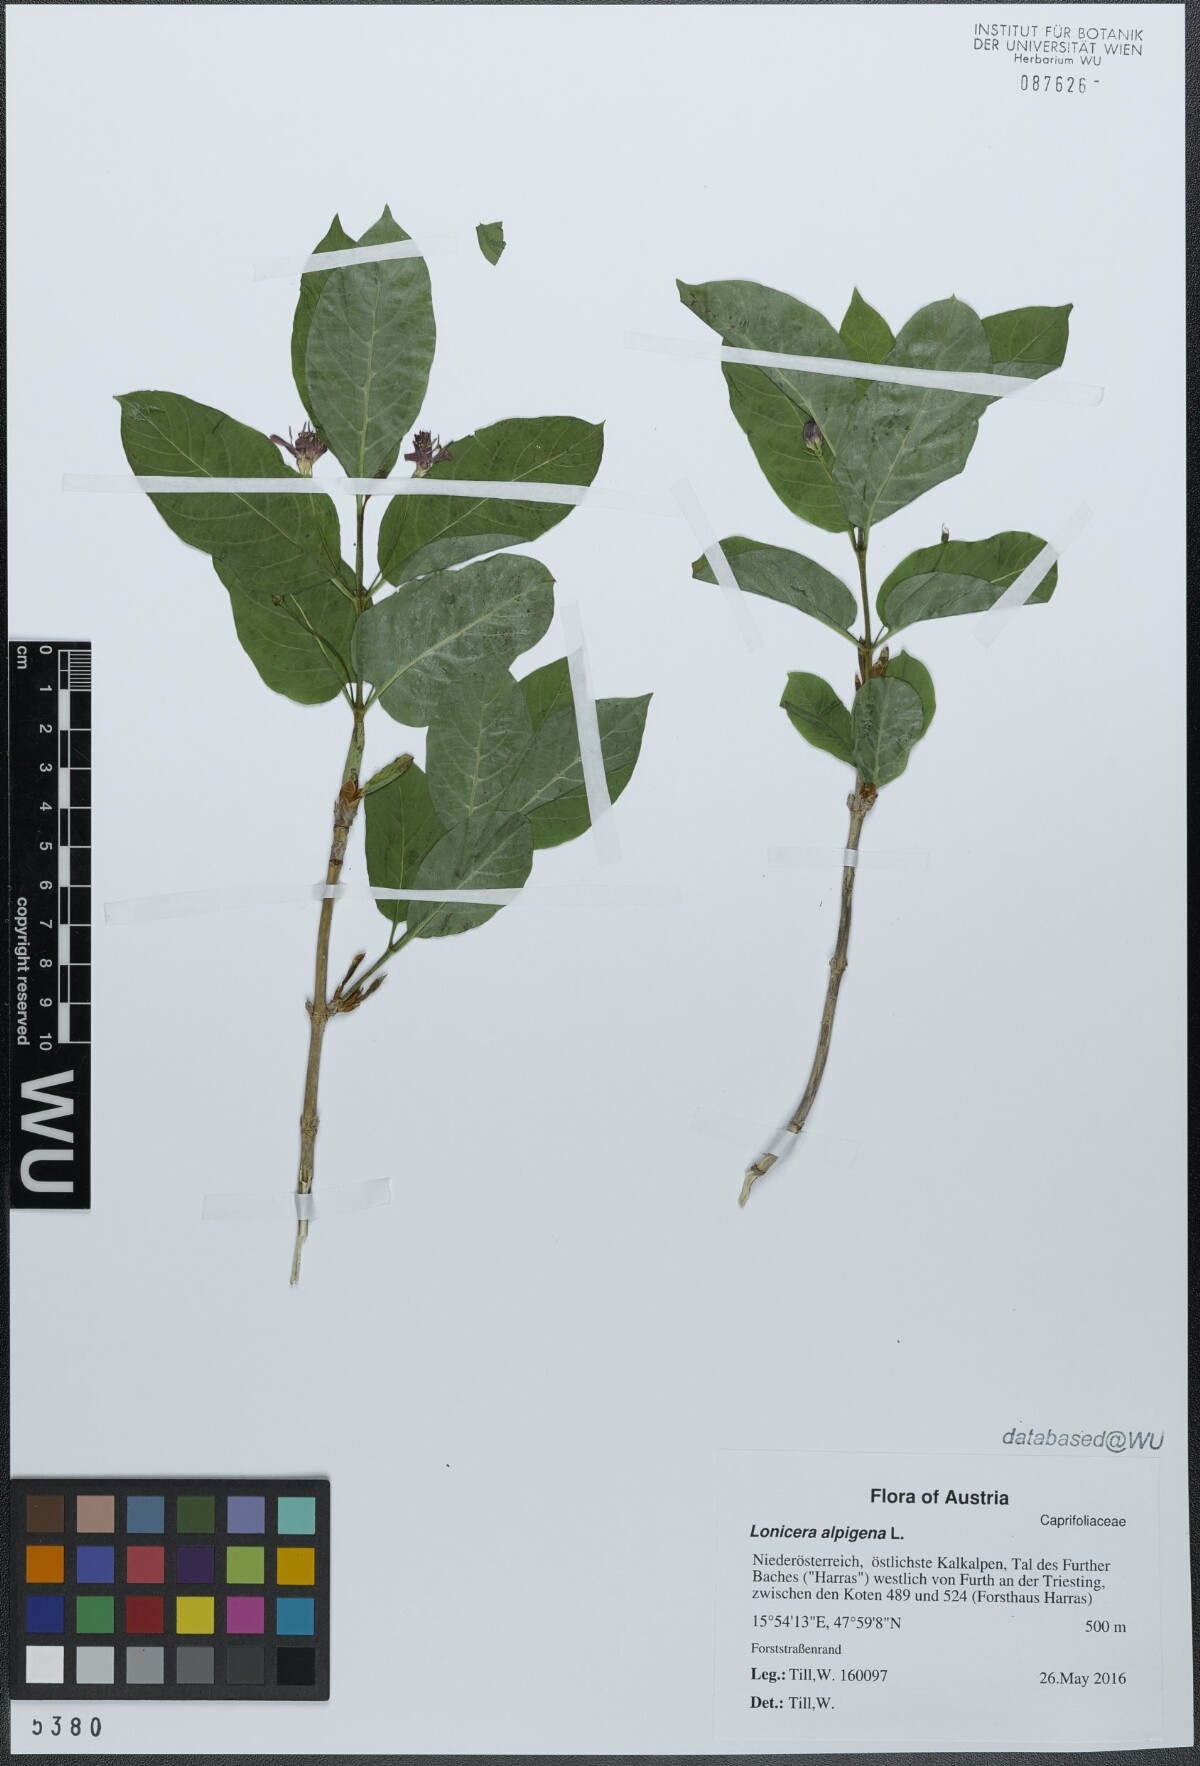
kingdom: Plantae
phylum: Tracheophyta
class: Magnoliopsida
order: Dipsacales
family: Caprifoliaceae
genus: Lonicera
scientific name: Lonicera alpigena
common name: Alpine honeysuckle
